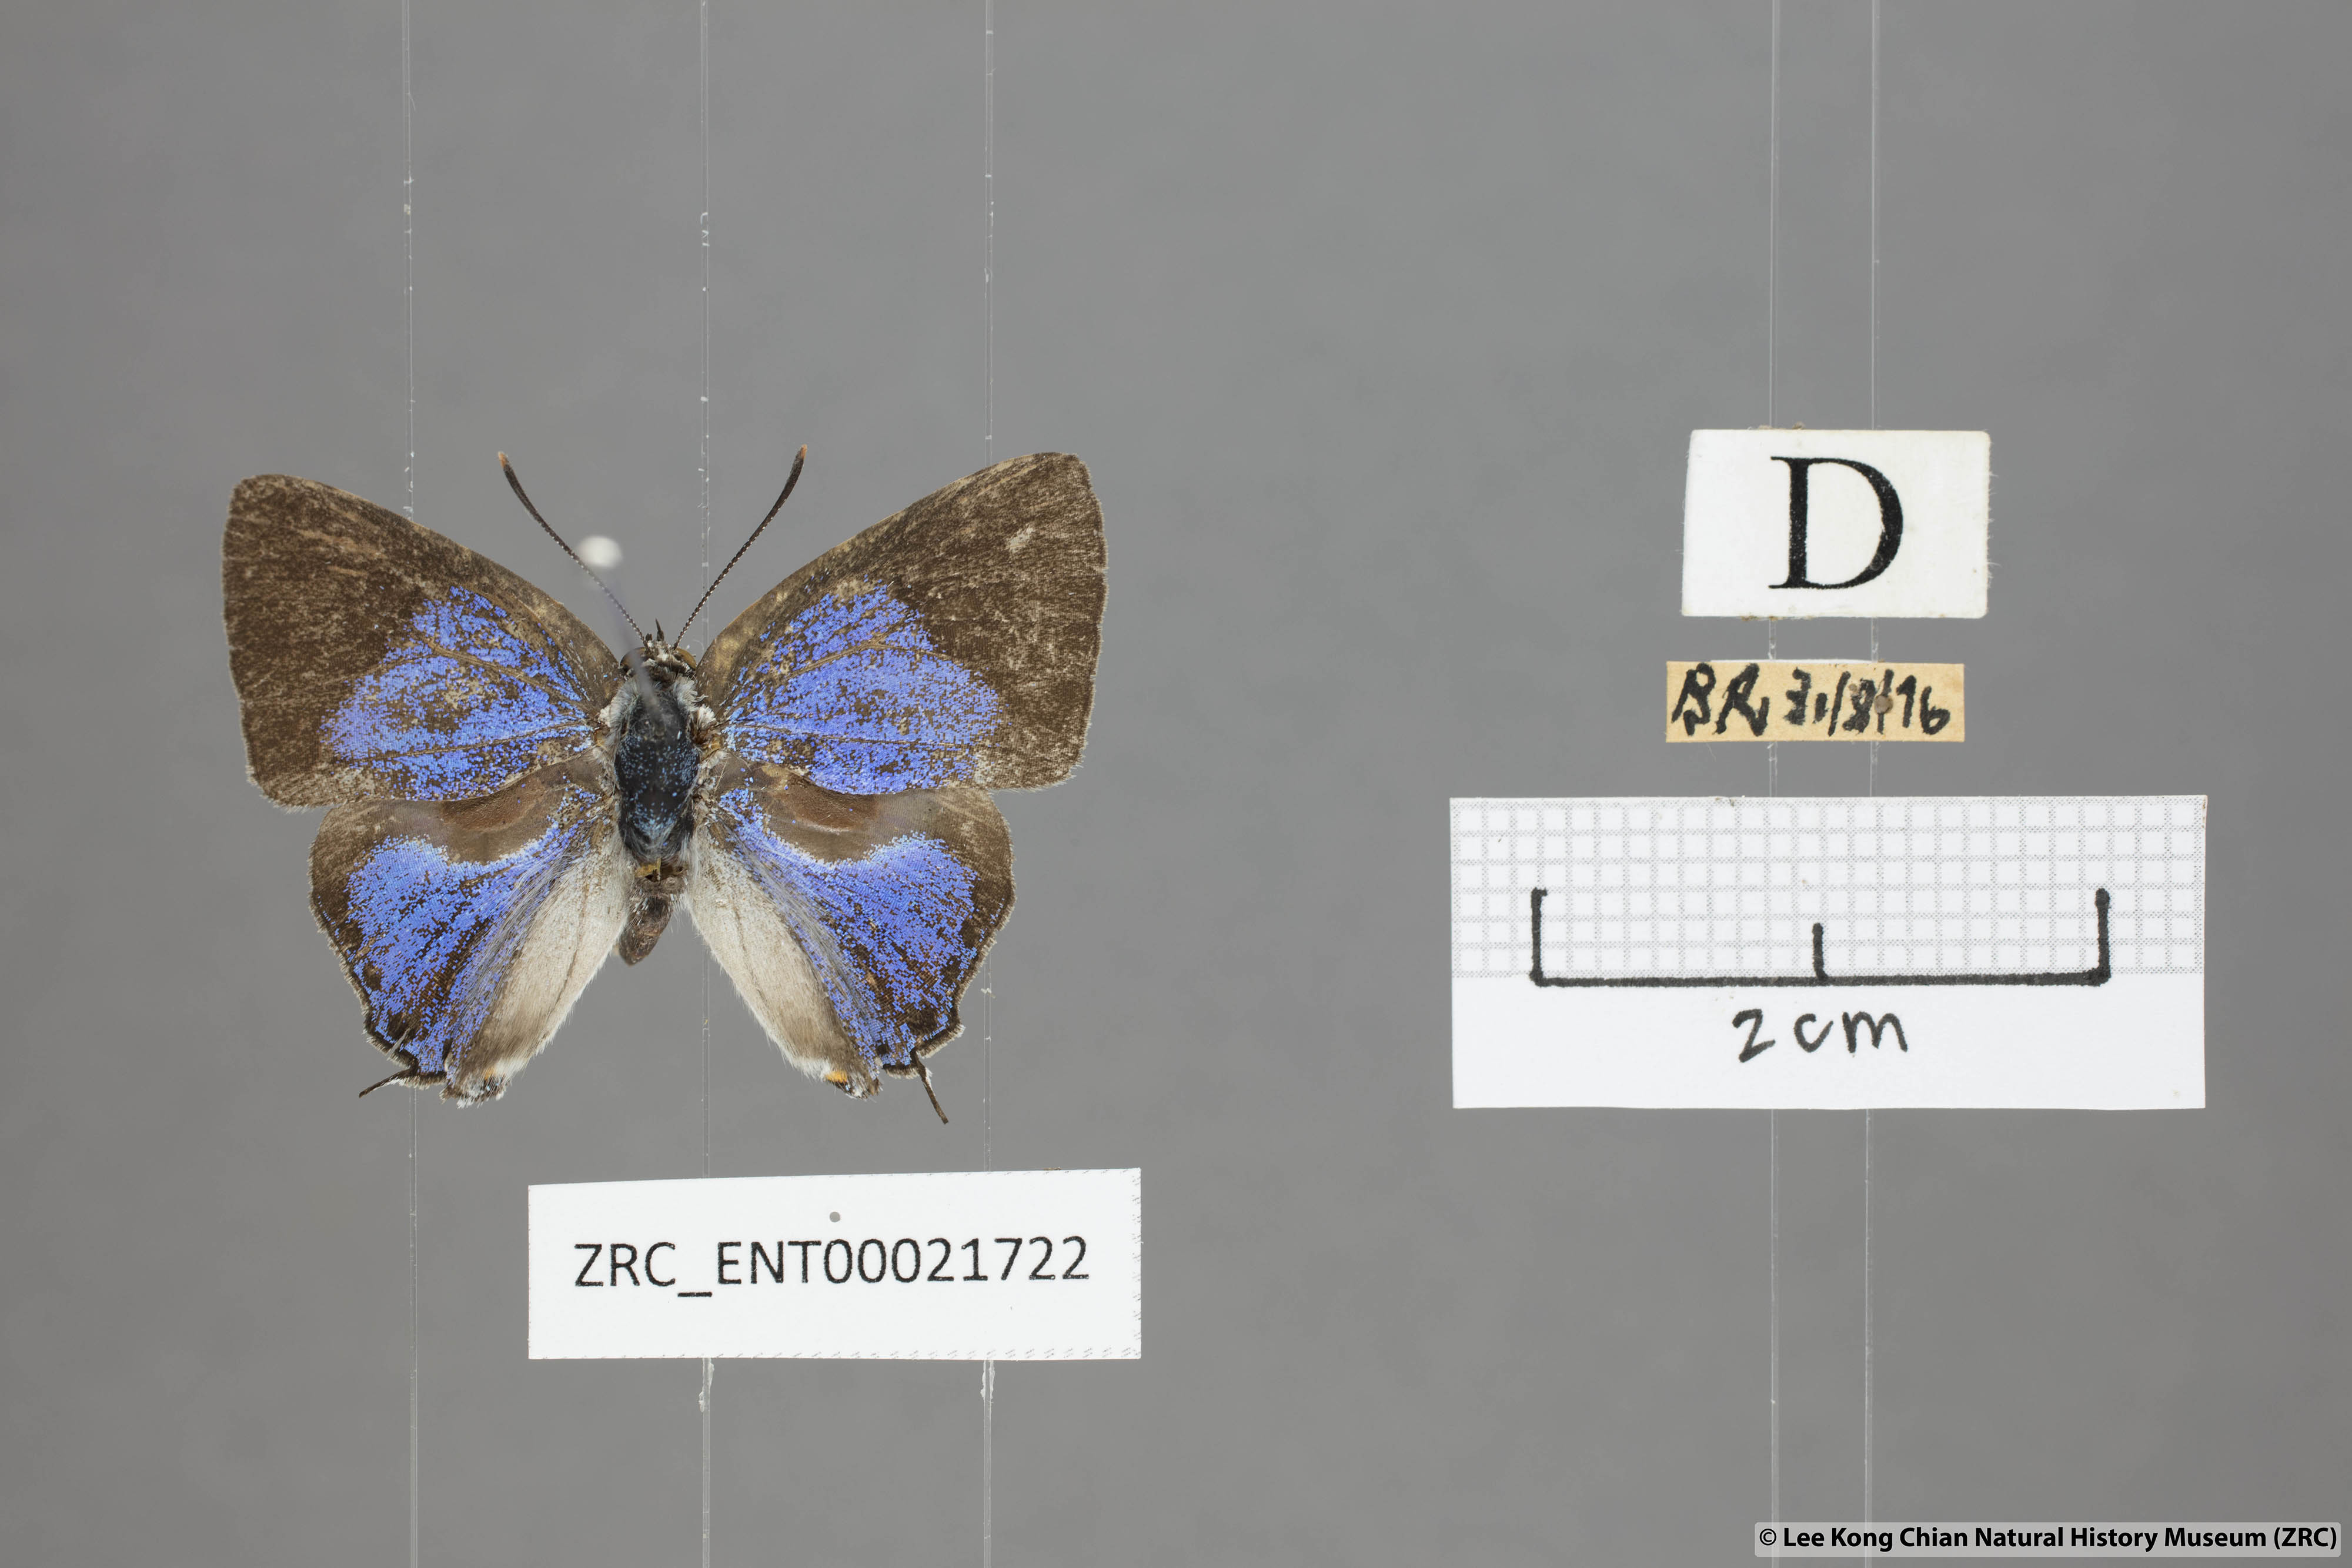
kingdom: Animalia
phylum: Arthropoda
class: Insecta
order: Lepidoptera
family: Lycaenidae
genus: Pratapa
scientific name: Pratapa deva
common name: White royal
